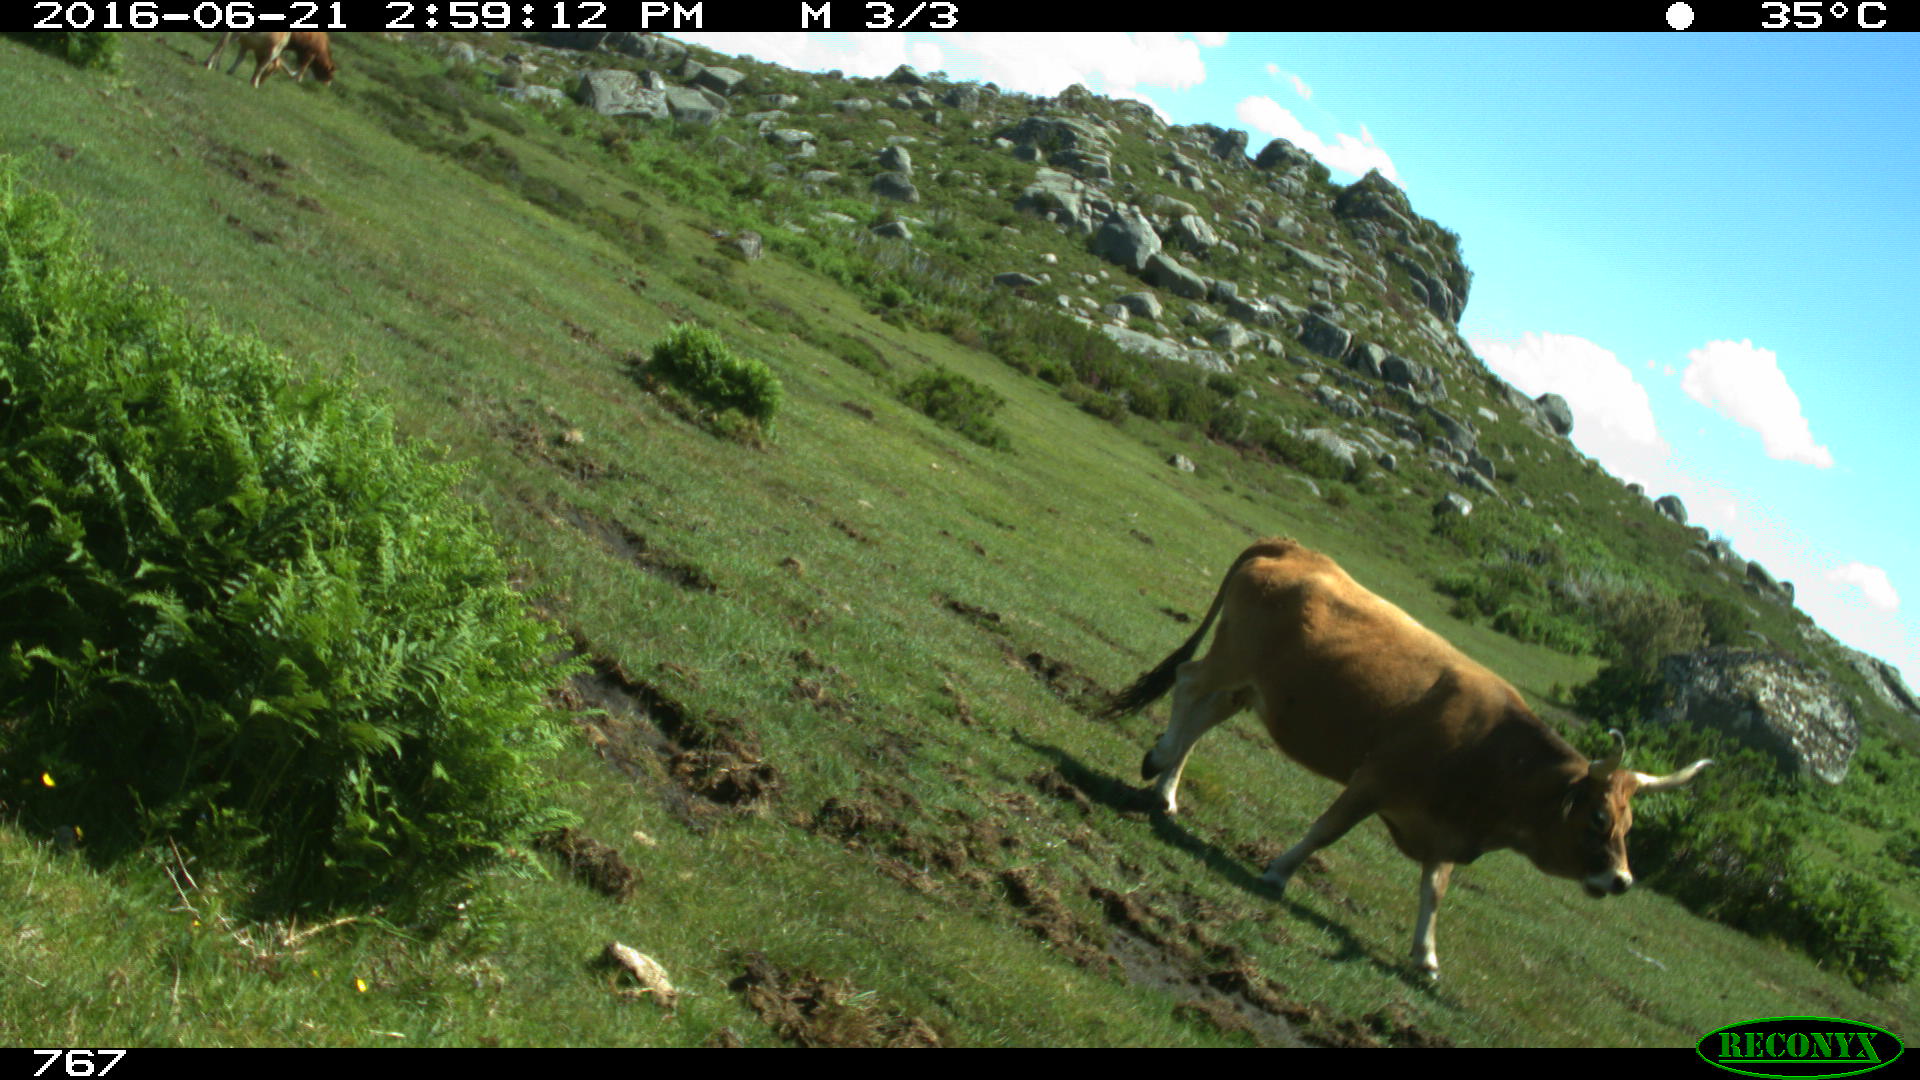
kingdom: Animalia
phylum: Chordata
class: Mammalia
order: Artiodactyla
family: Bovidae
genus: Bos
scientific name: Bos taurus
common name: Domesticated cattle
